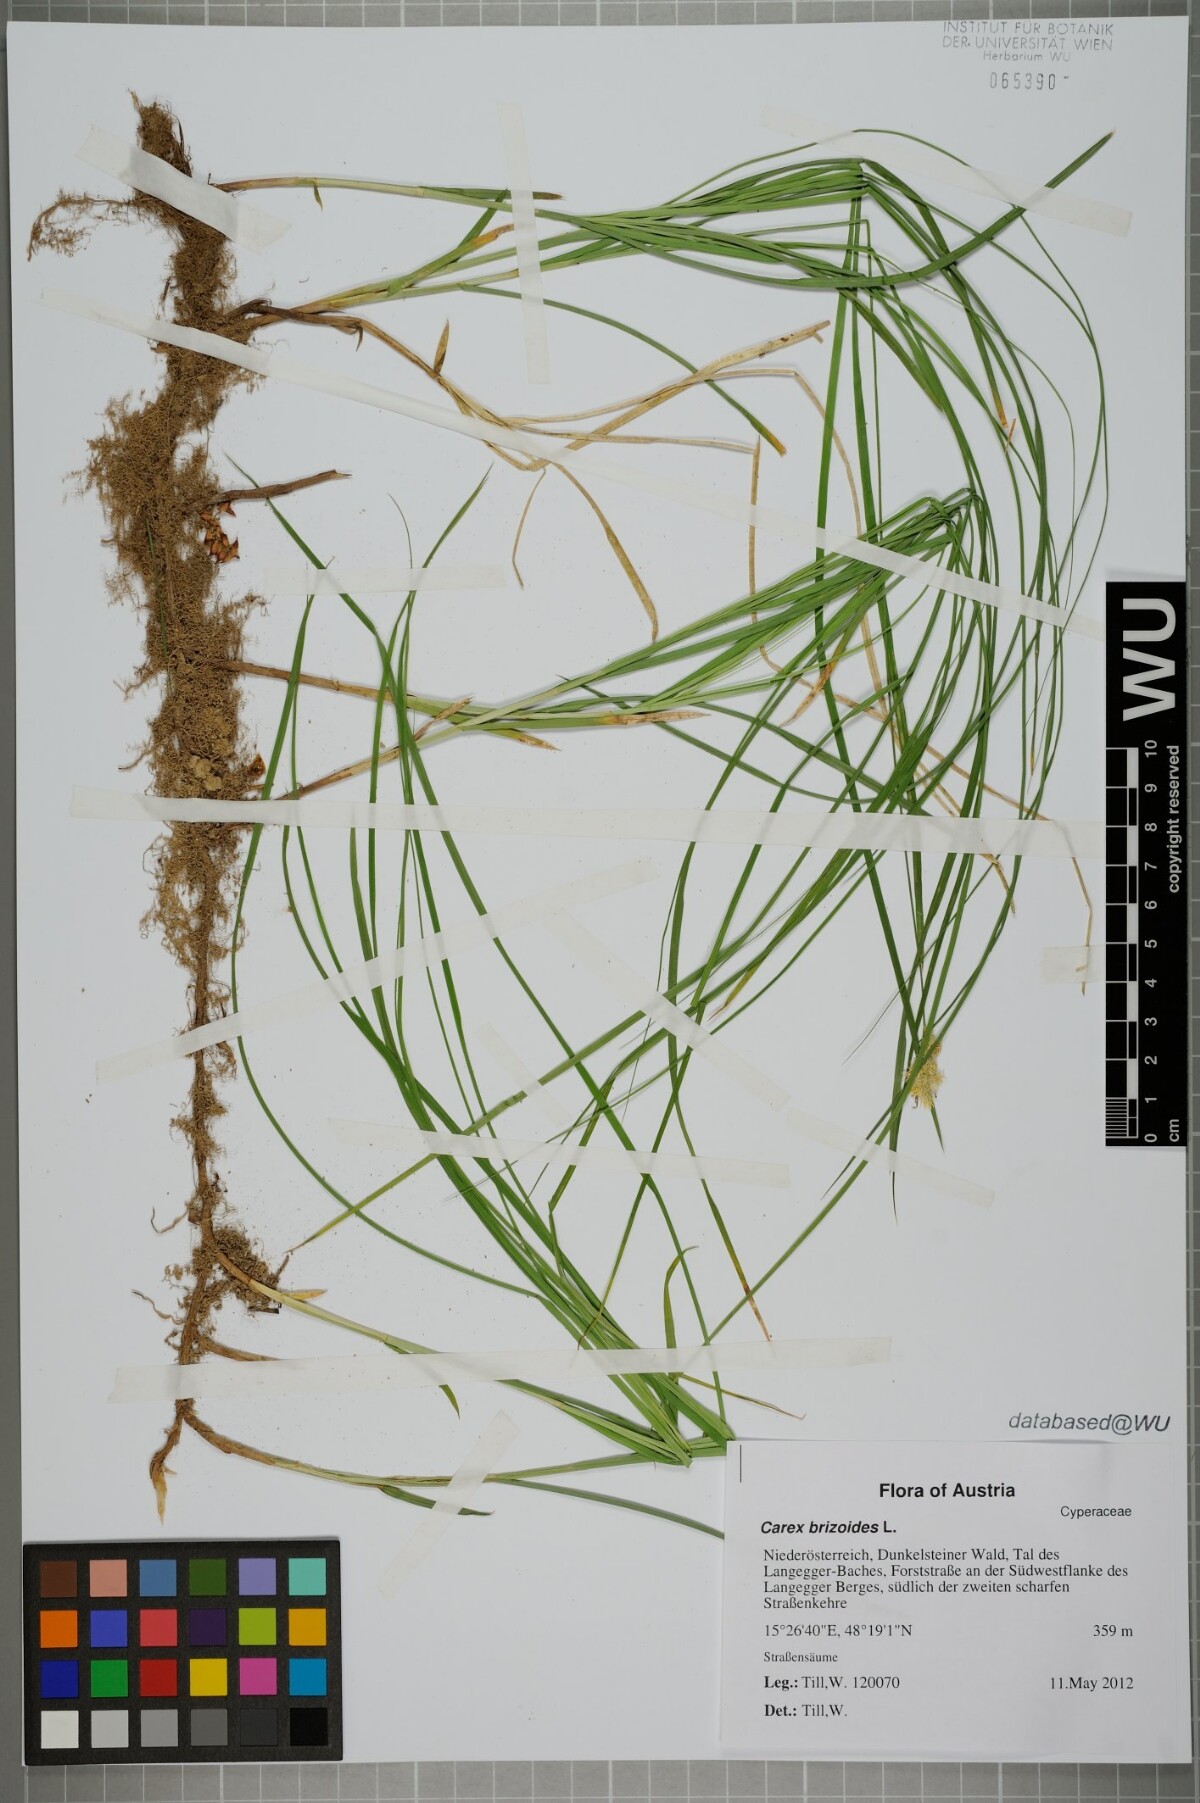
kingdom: Plantae
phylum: Tracheophyta
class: Liliopsida
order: Poales
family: Cyperaceae
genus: Carex
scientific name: Carex brizoides
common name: Quaking-grass sedge
